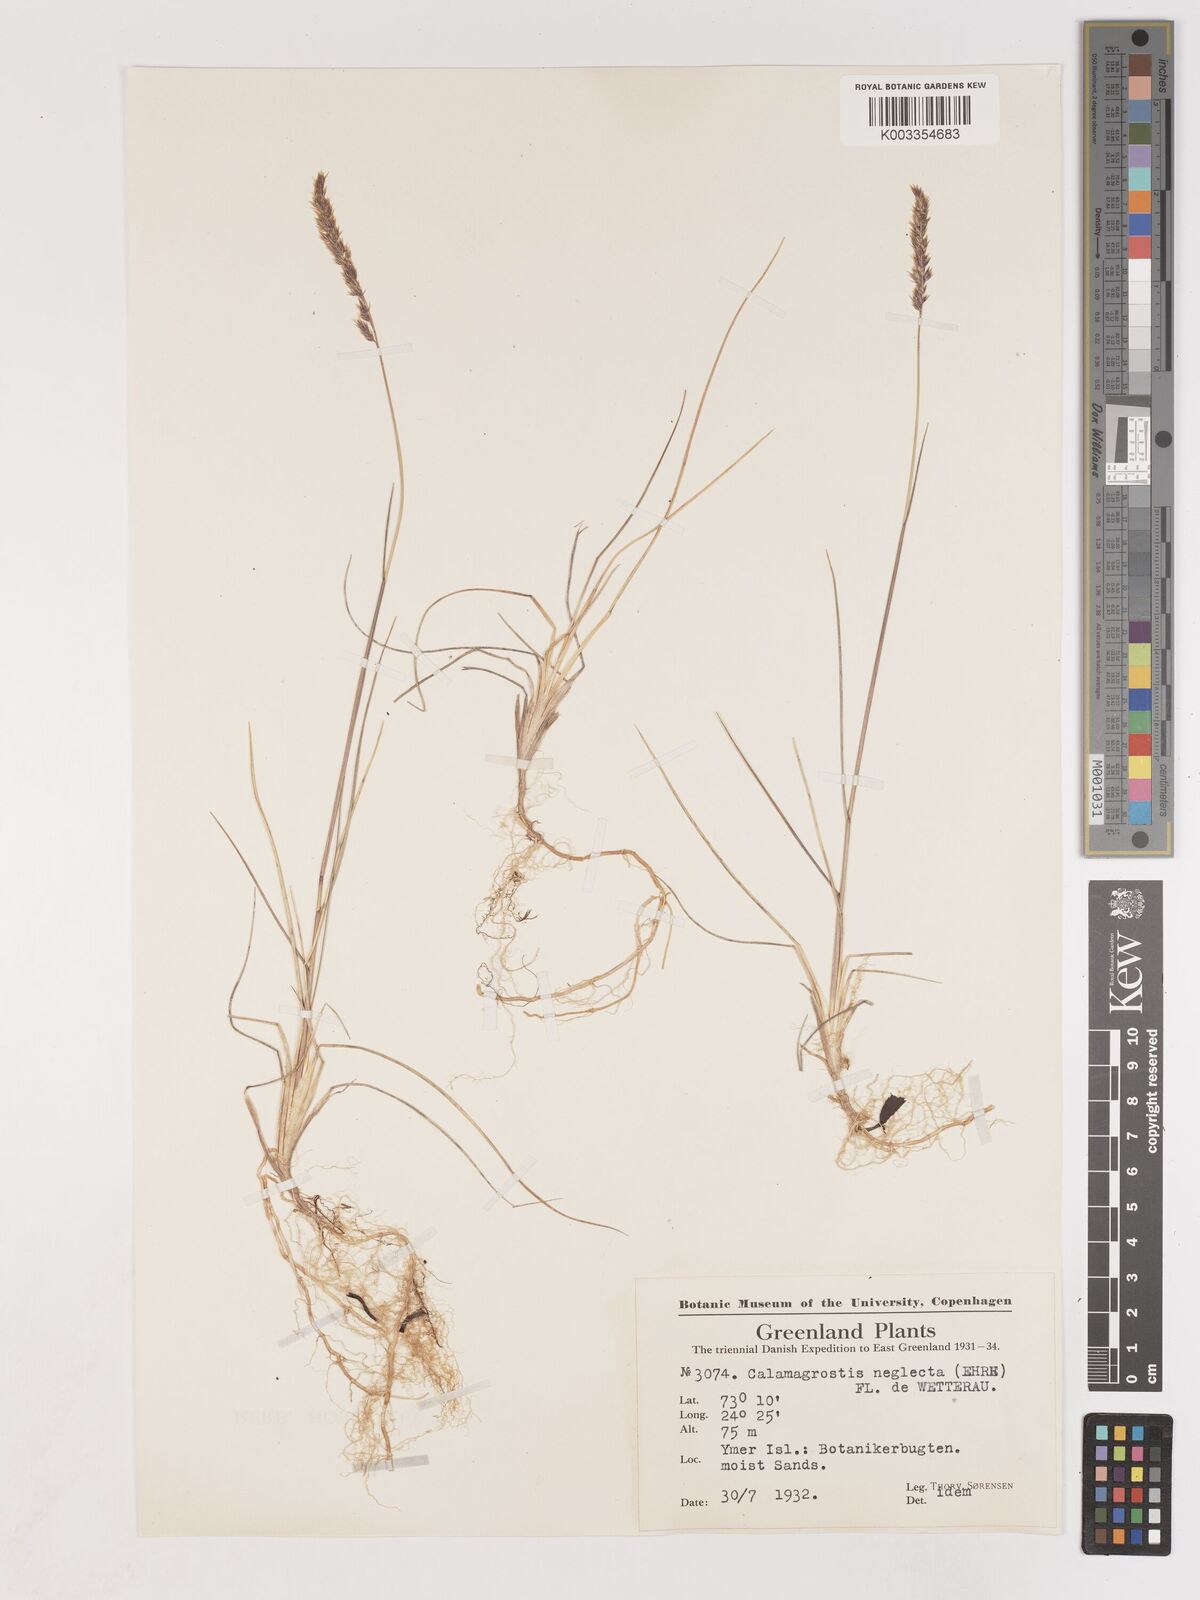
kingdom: Plantae
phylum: Tracheophyta
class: Liliopsida
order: Poales
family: Poaceae
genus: Cinnagrostis
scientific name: Cinnagrostis recta
